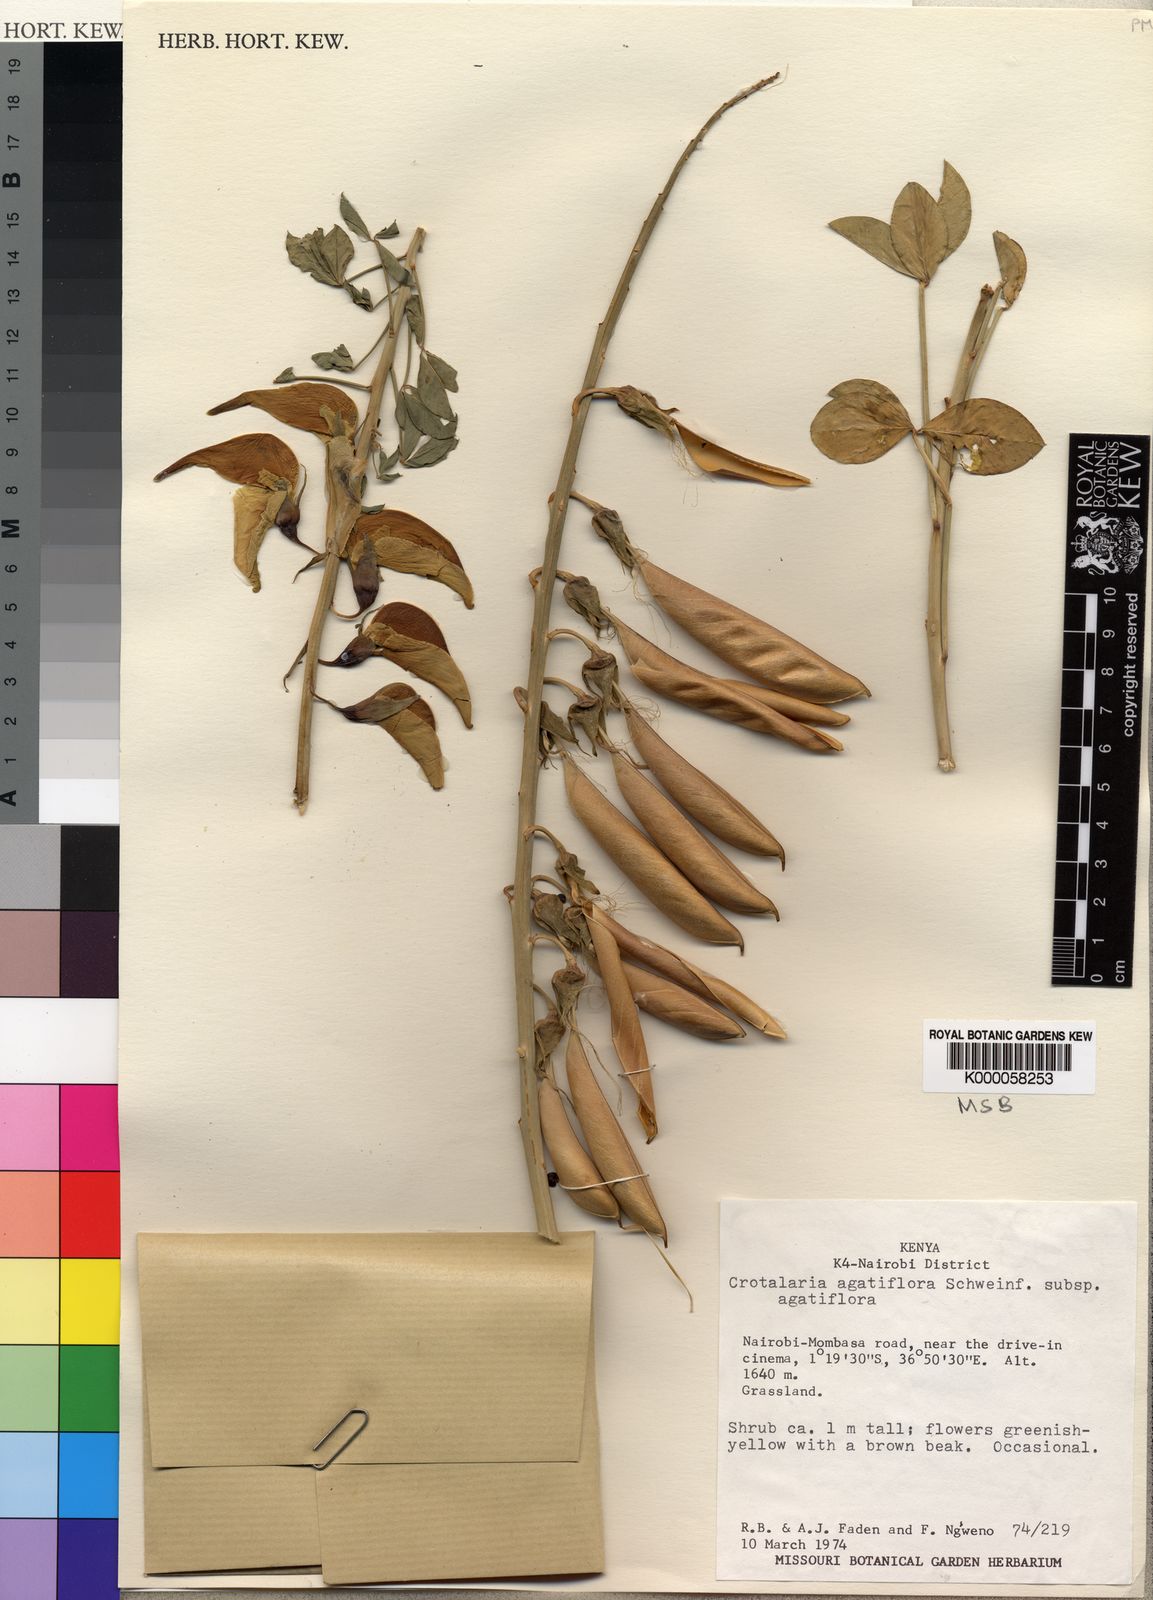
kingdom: Plantae
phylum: Tracheophyta
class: Magnoliopsida
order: Fabales
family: Fabaceae
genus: Crotalaria
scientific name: Crotalaria agatiflora
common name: Birdflower
